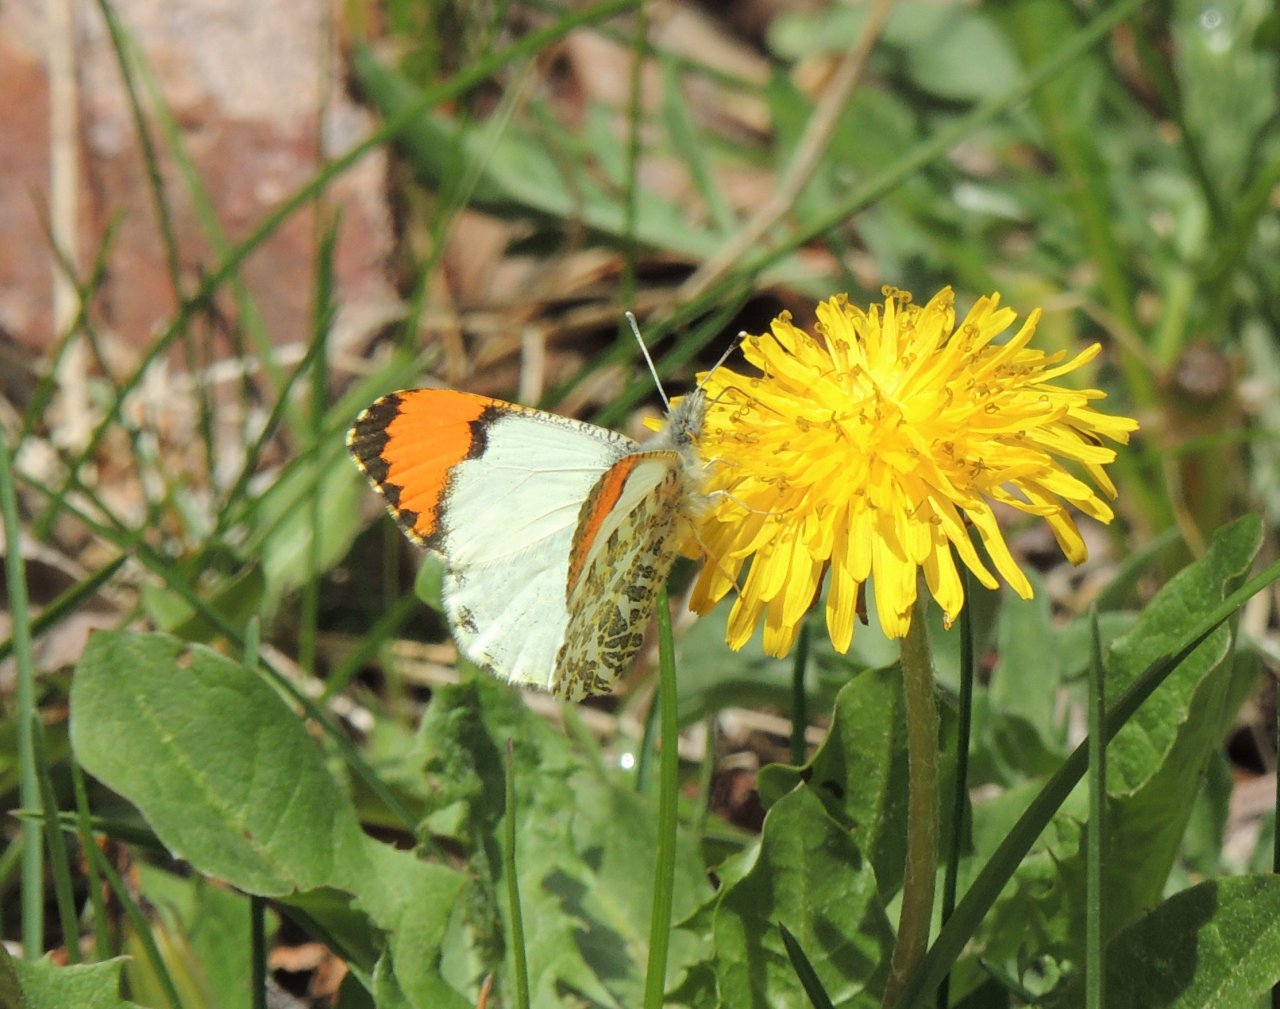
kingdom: Animalia
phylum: Arthropoda
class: Insecta
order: Lepidoptera
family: Pieridae
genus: Anthocharis
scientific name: Anthocharis sara
